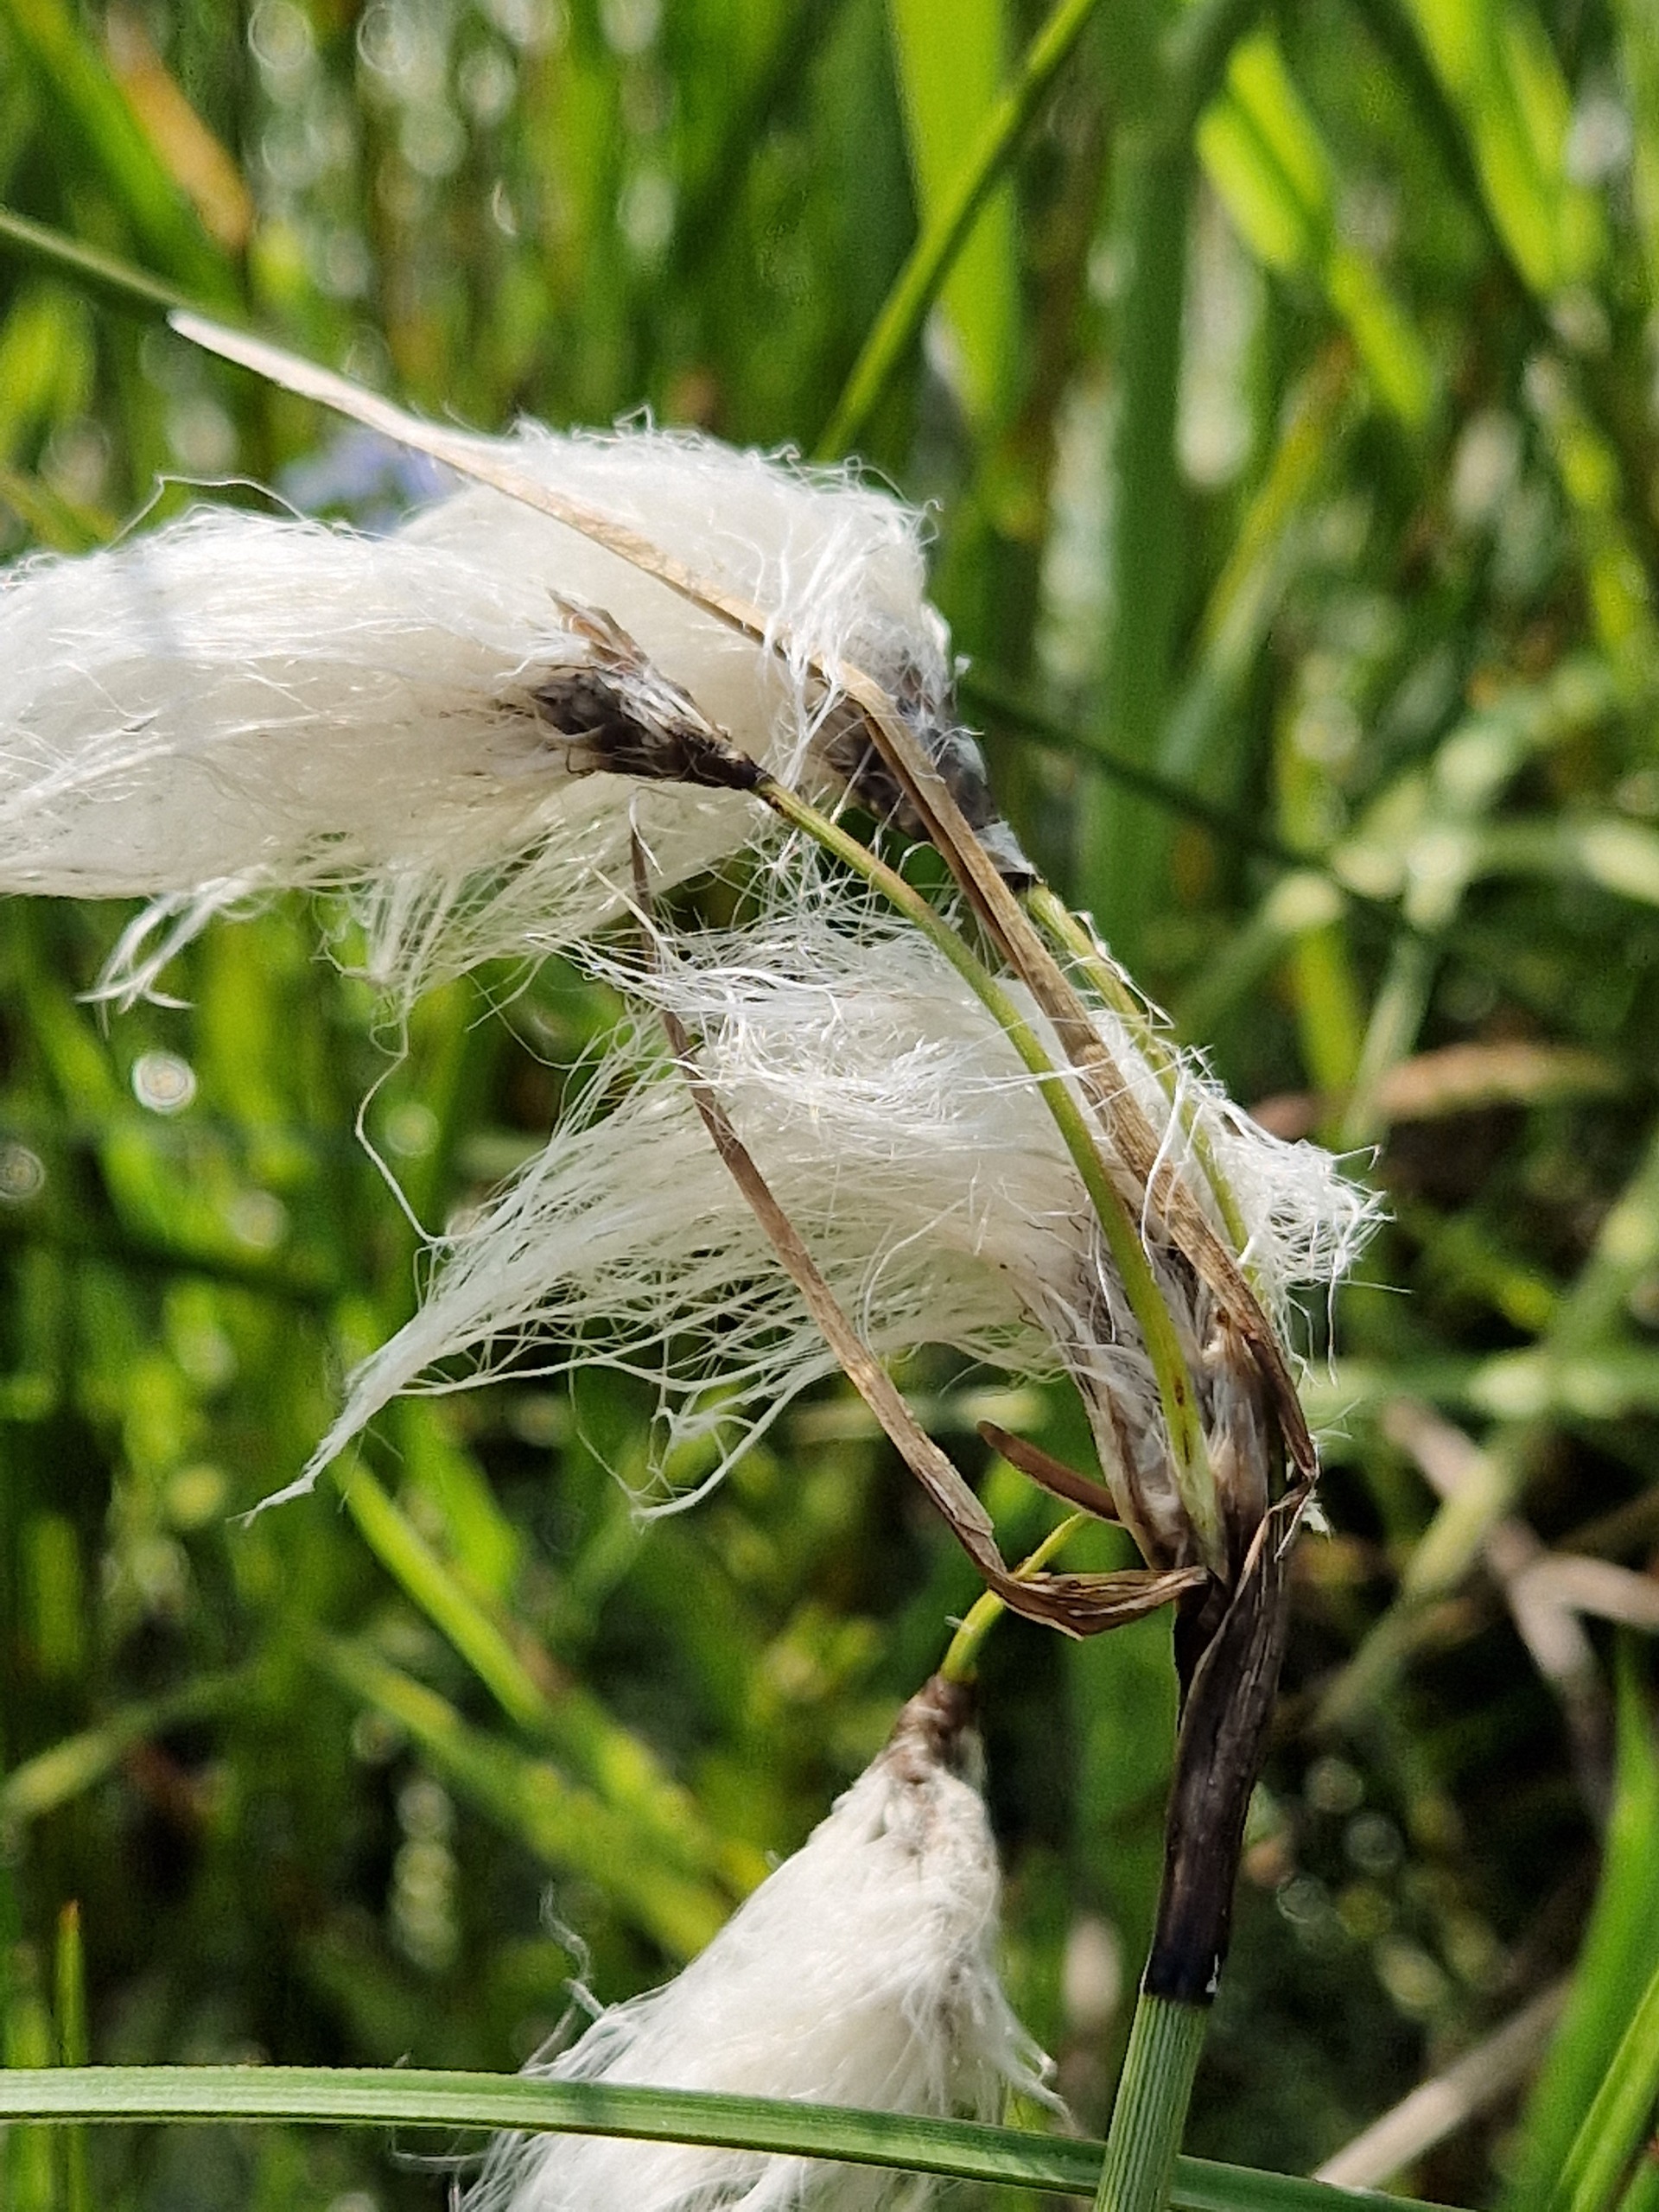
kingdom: Plantae
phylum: Tracheophyta
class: Liliopsida
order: Poales
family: Cyperaceae
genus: Eriophorum
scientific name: Eriophorum angustifolium
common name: Smalbladet kæruld
